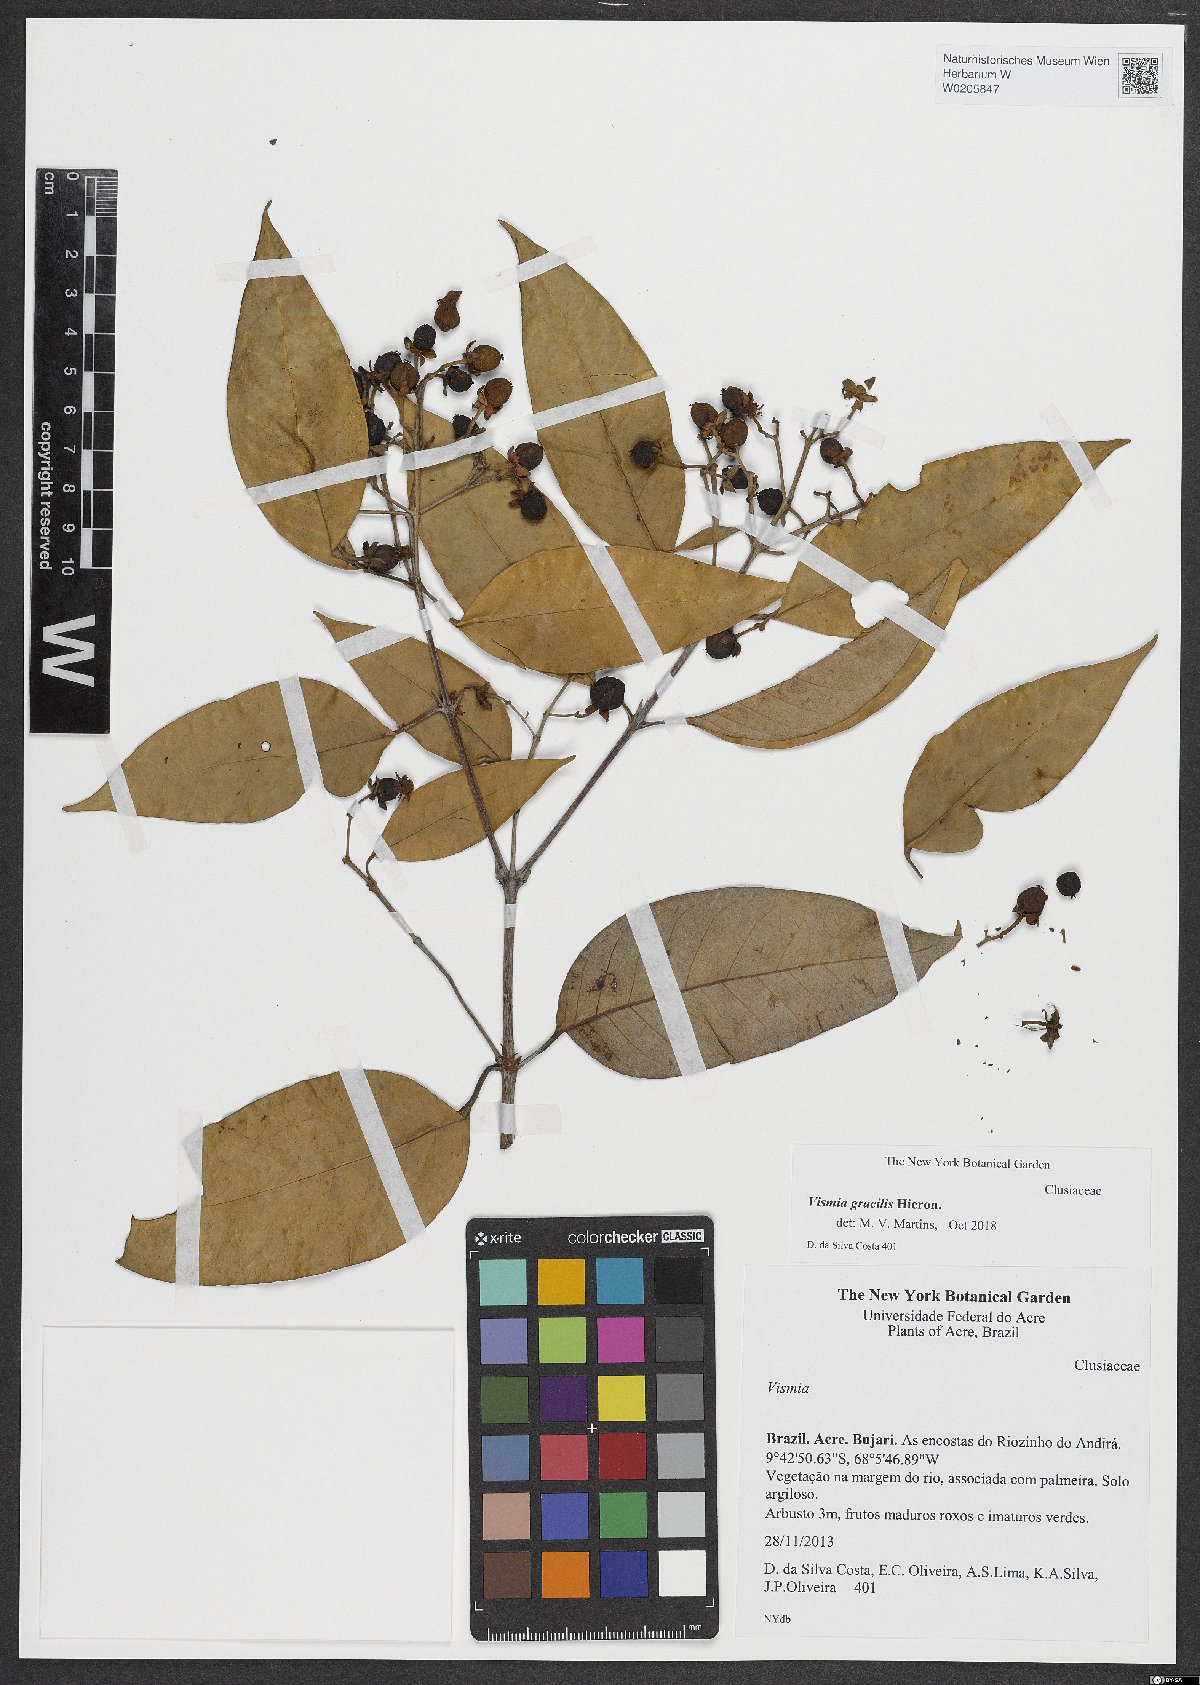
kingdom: Plantae
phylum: Tracheophyta
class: Magnoliopsida
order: Malpighiales
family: Hypericaceae
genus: Vismia
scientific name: Vismia gracilis
